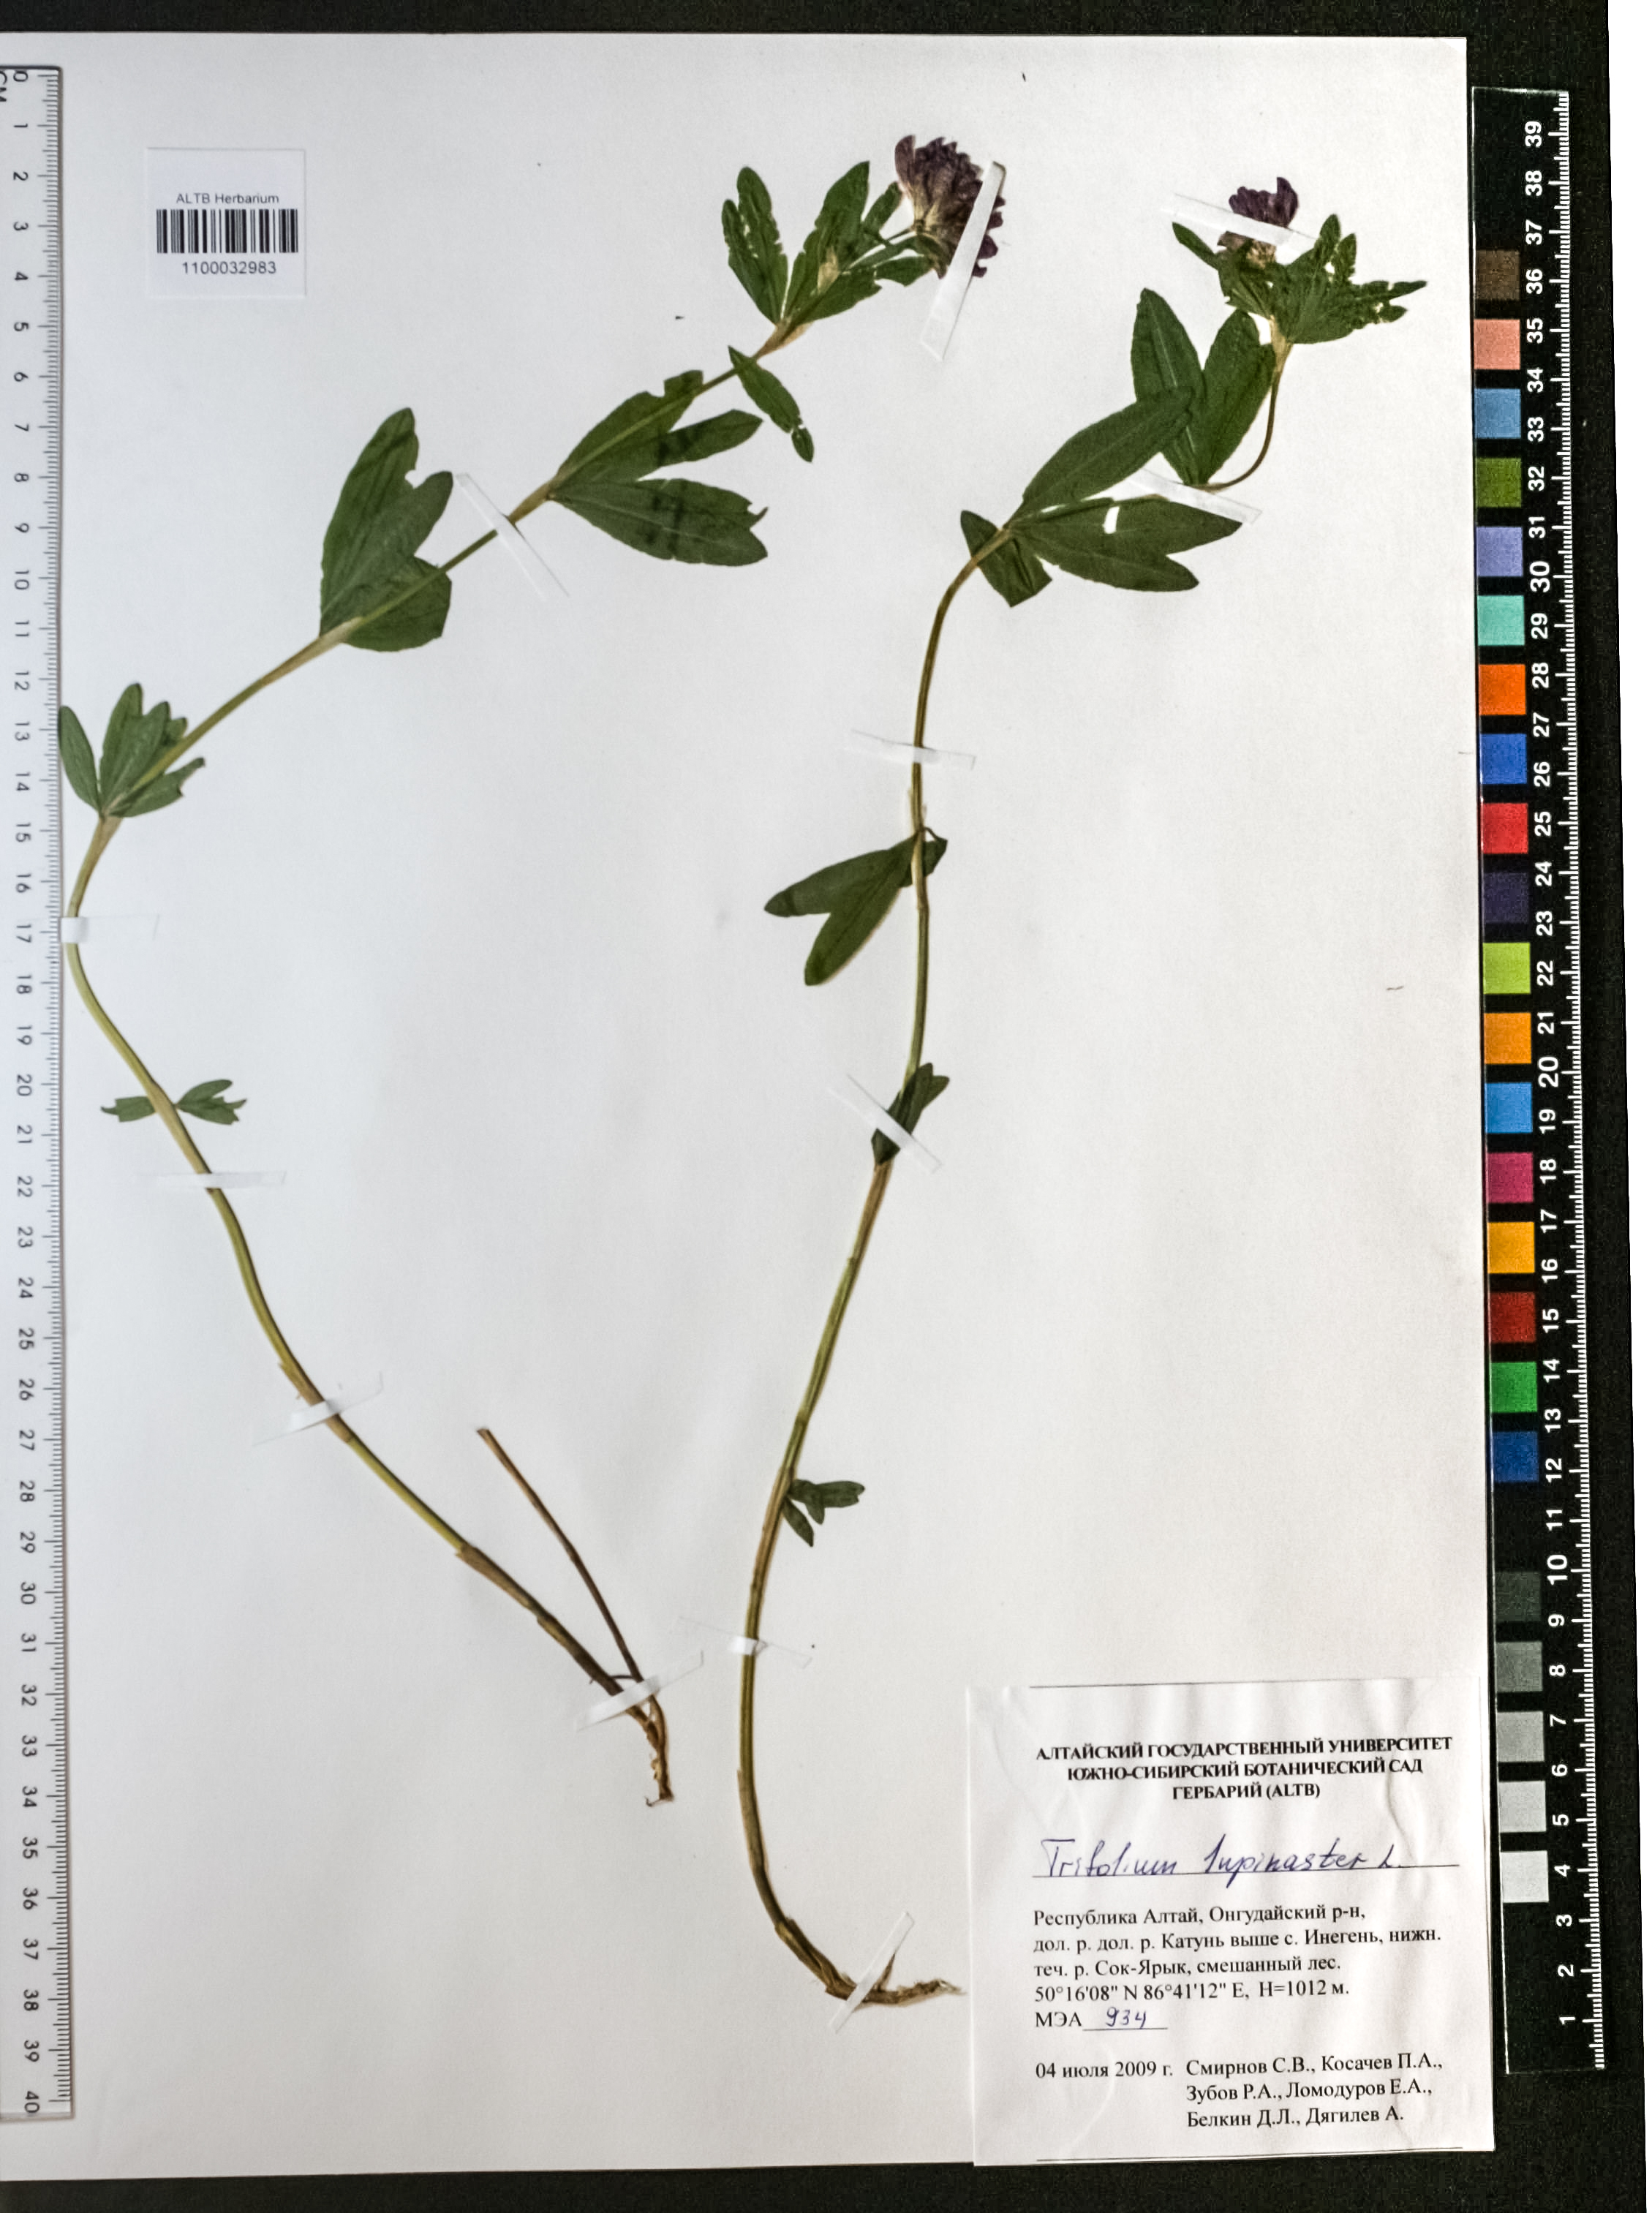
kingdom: Plantae
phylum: Tracheophyta
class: Magnoliopsida
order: Fabales
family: Fabaceae
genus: Trifolium
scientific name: Trifolium lupinaster
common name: Lupine clover
